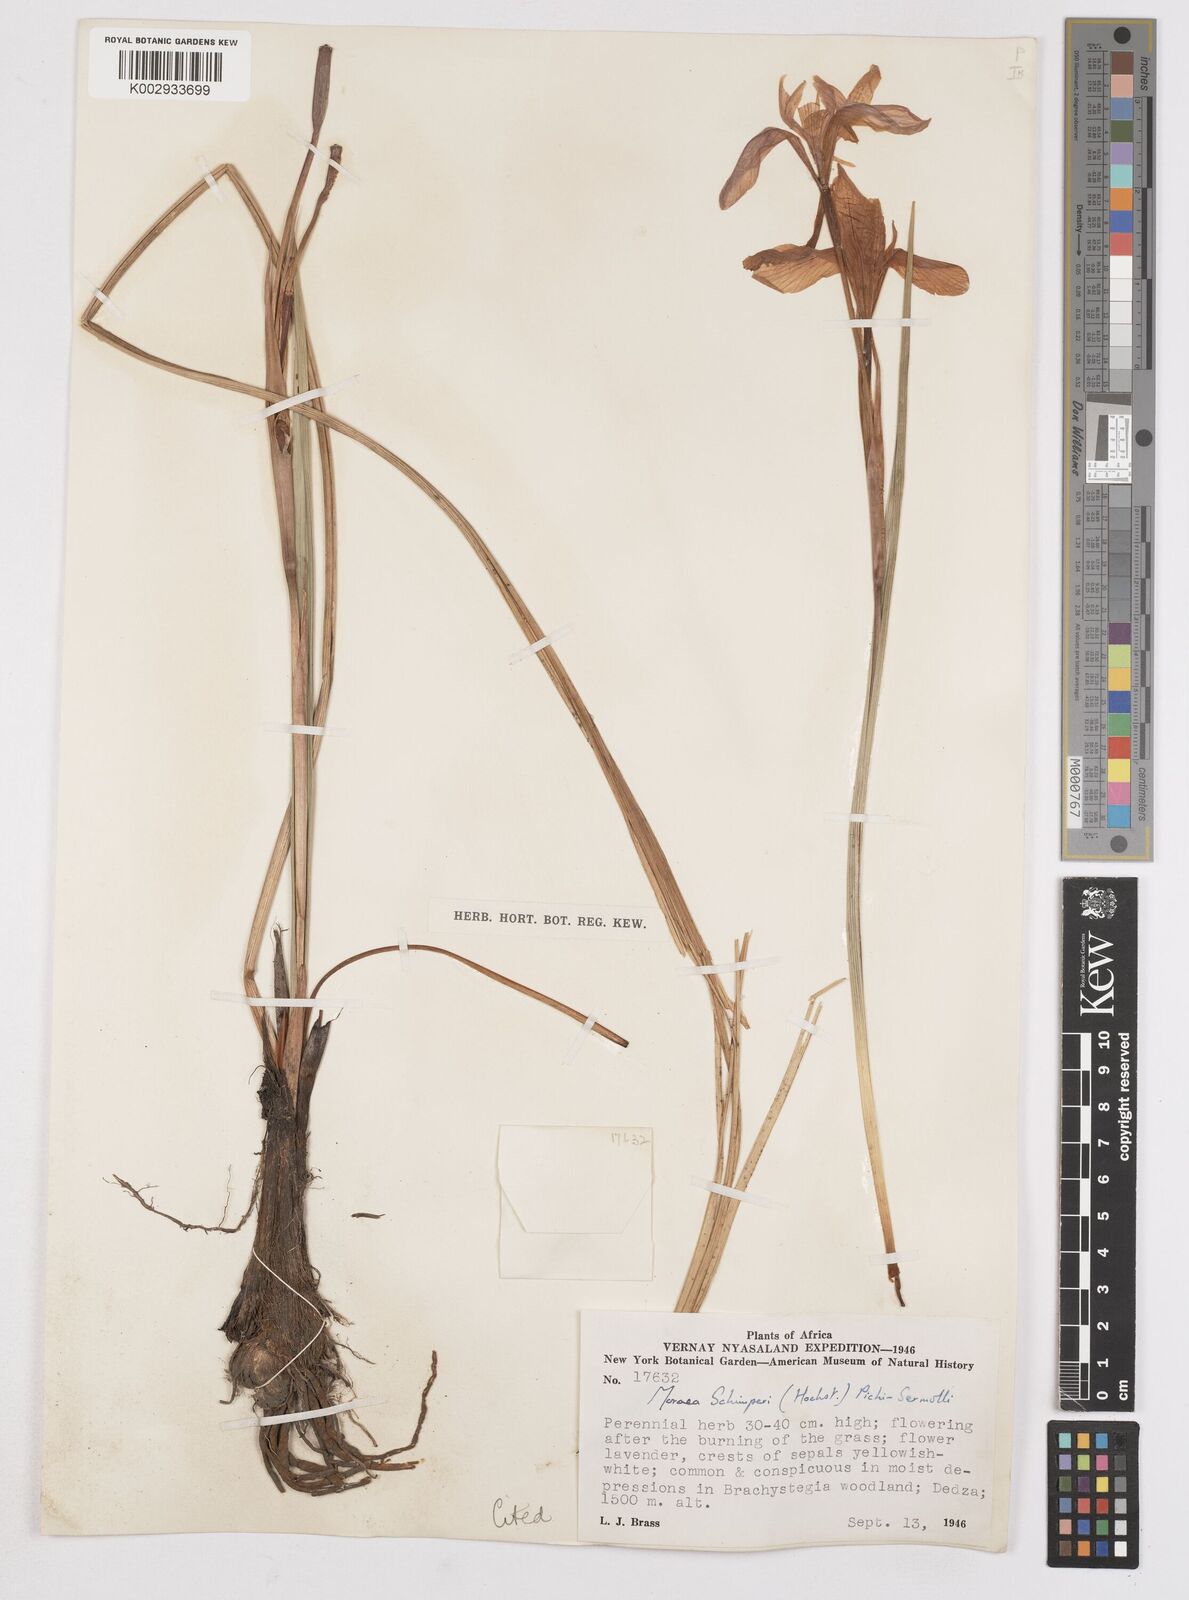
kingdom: Plantae
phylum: Tracheophyta
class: Liliopsida
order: Asparagales
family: Iridaceae
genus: Moraea
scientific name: Moraea schimperi
